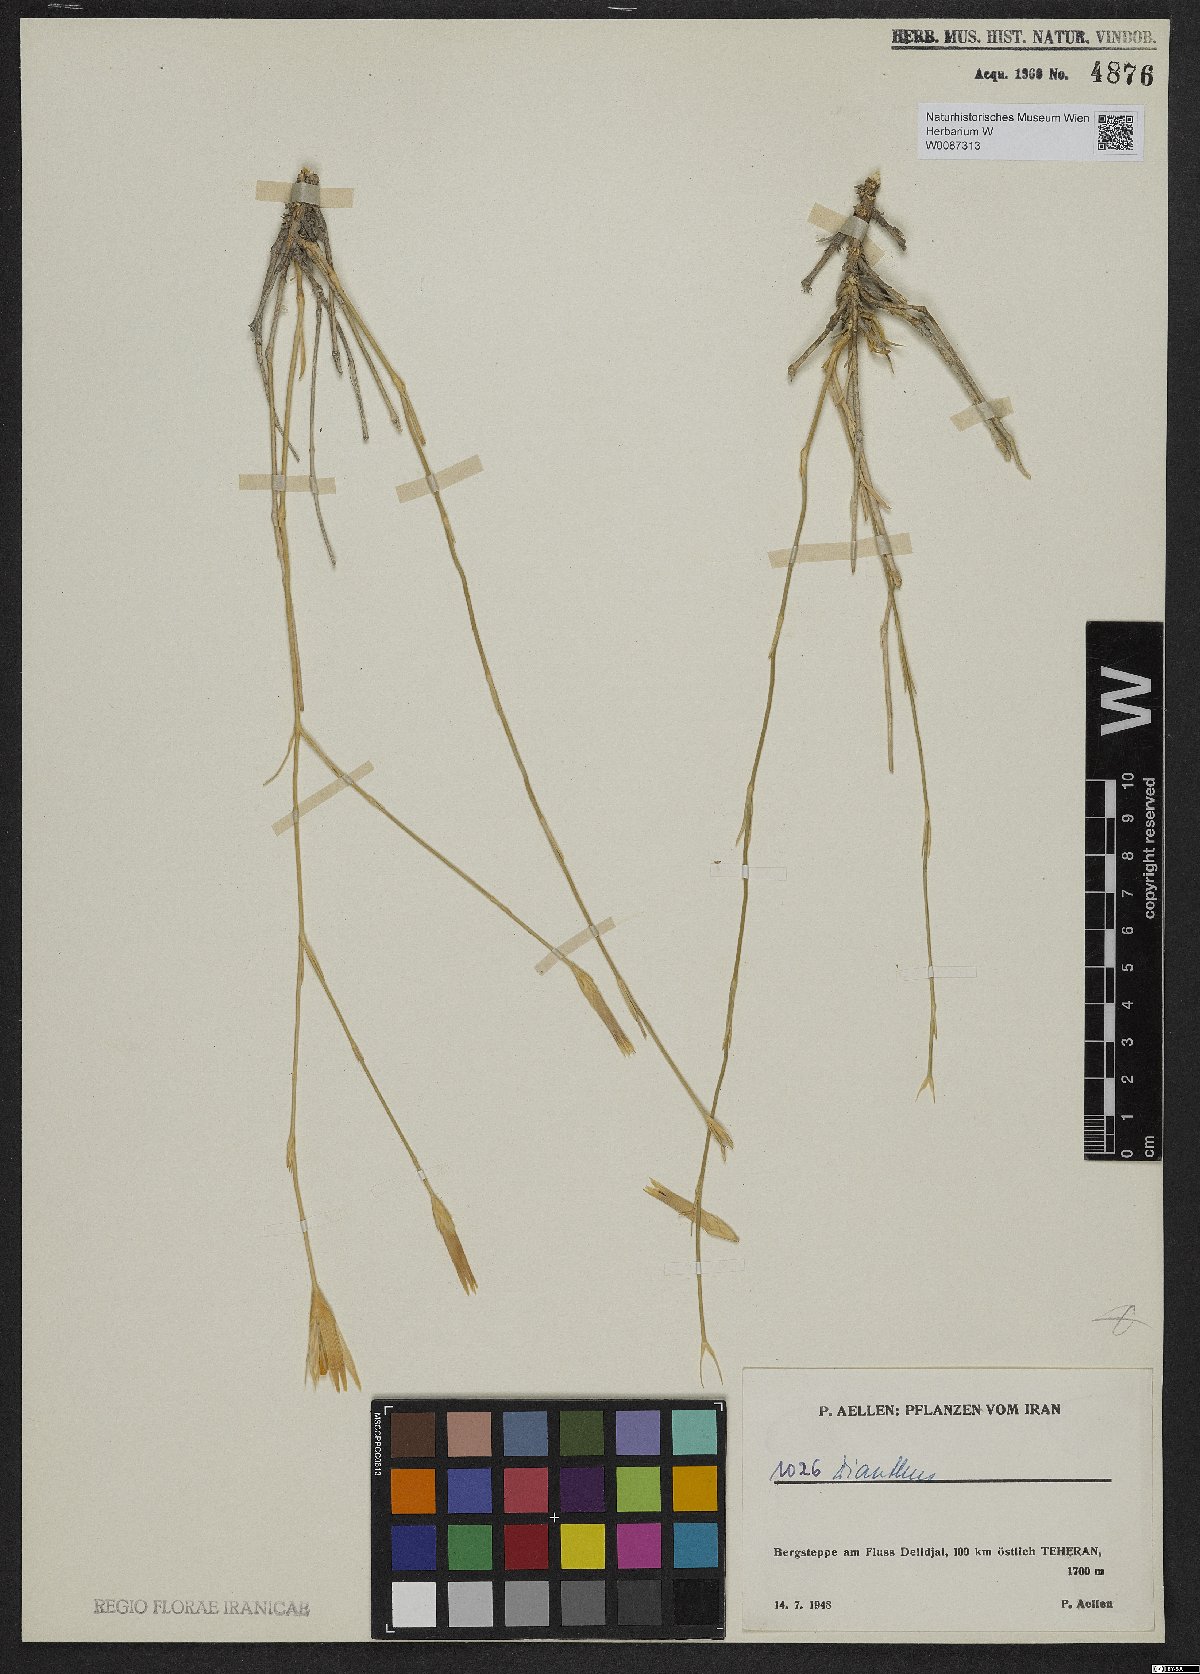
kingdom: Plantae
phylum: Tracheophyta
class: Magnoliopsida
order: Caryophyllales
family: Caryophyllaceae
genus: Dianthus
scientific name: Dianthus
